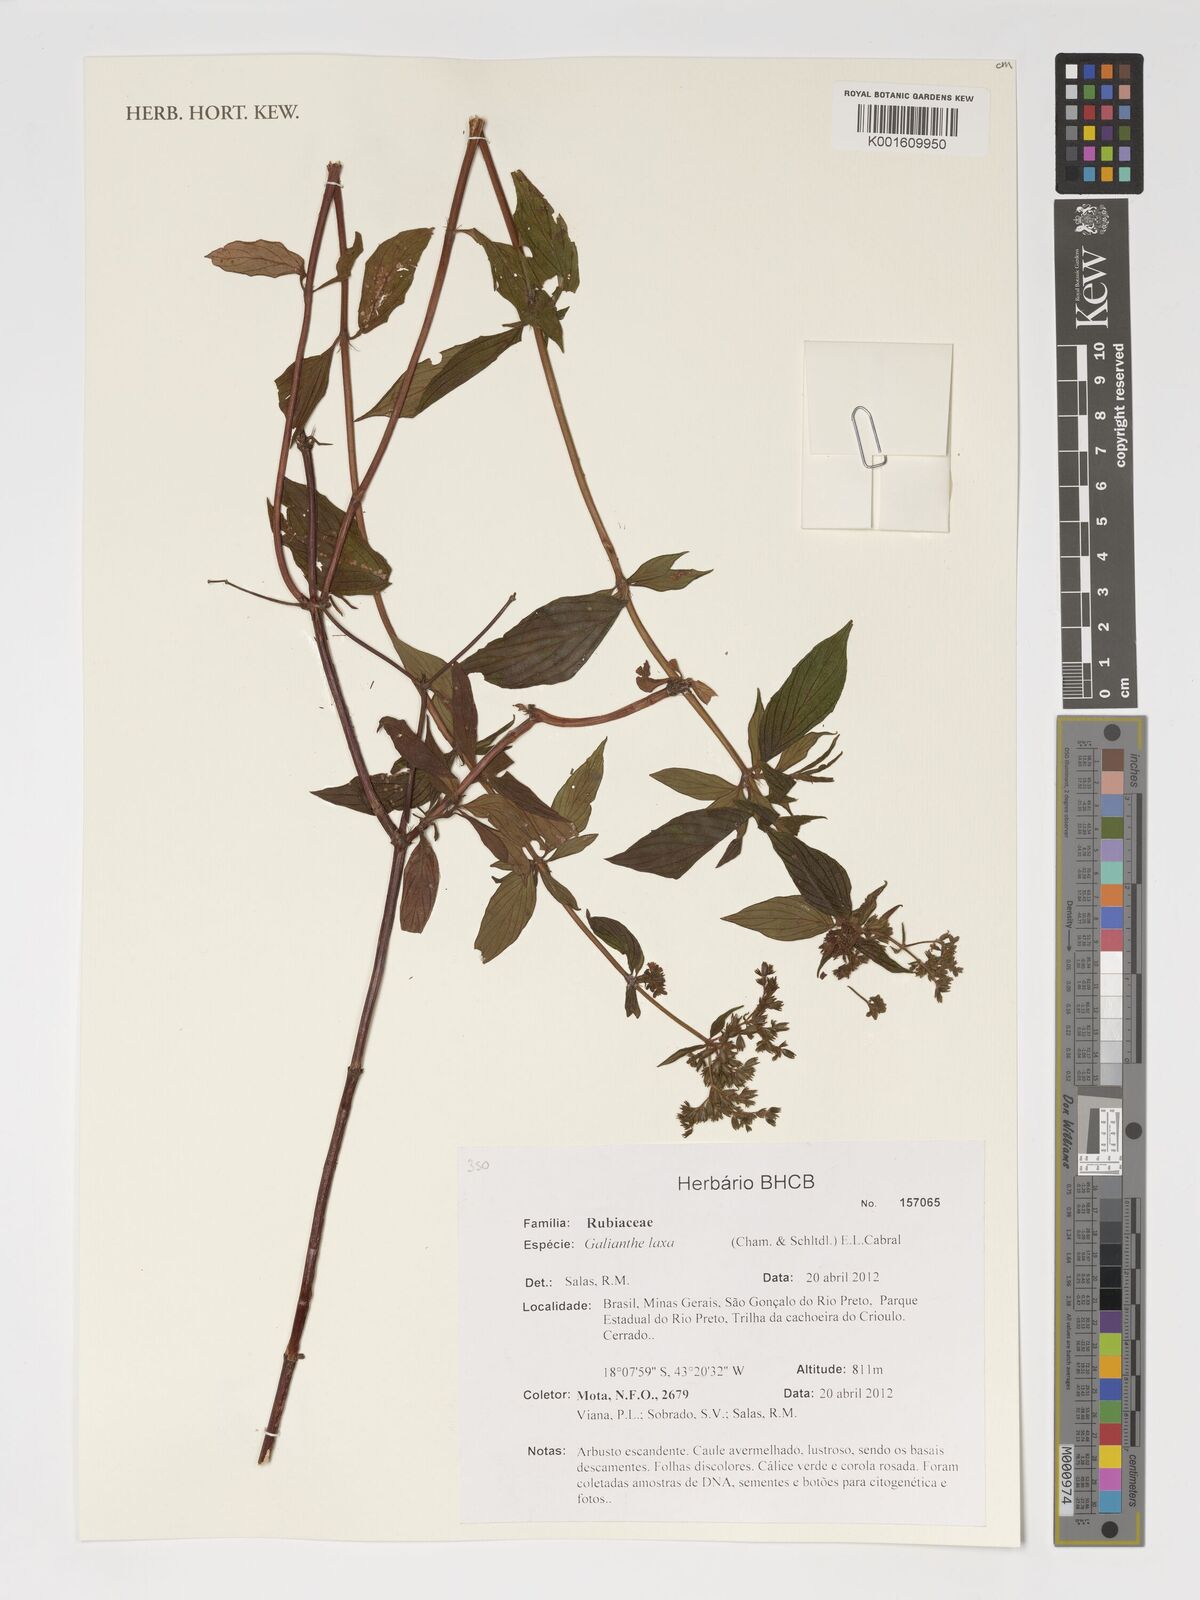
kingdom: Plantae
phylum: Tracheophyta
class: Magnoliopsida
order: Gentianales
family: Rubiaceae
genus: Galianthe
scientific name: Galianthe laxa
